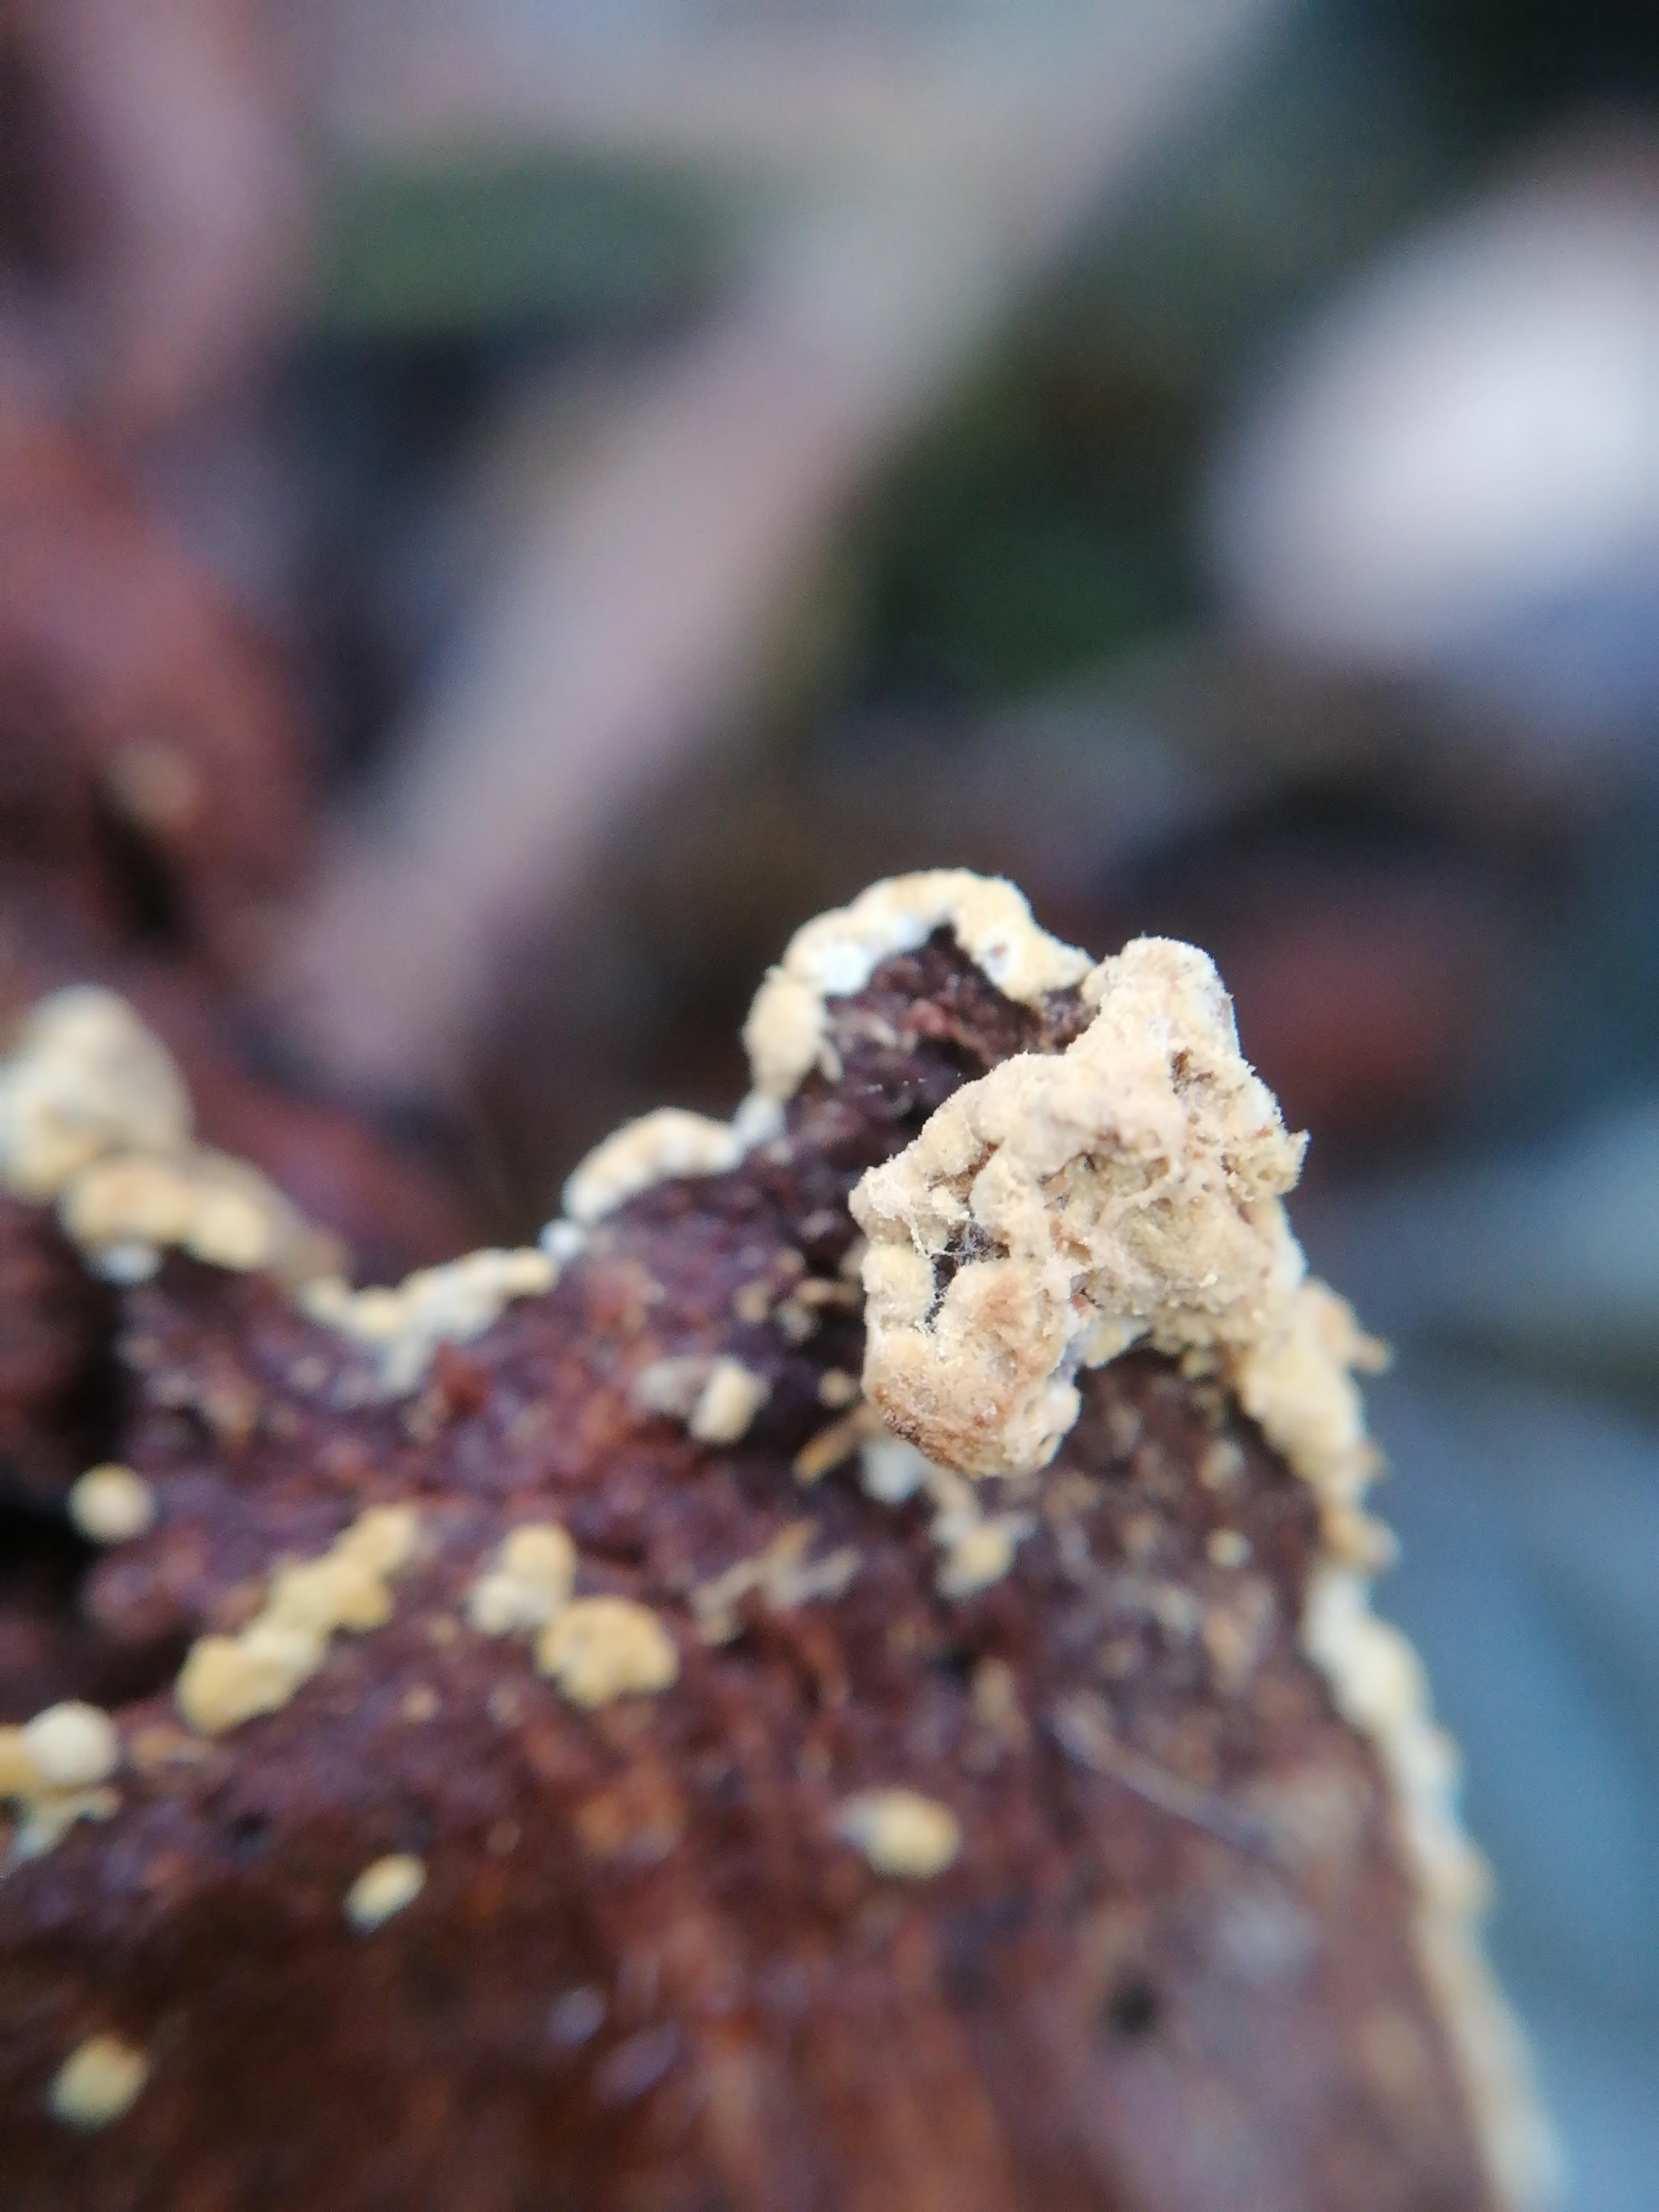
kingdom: Fungi
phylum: Basidiomycota
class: Agaricomycetes
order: Cantharellales
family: Botryobasidiaceae
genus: Botryobasidium
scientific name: Botryobasidium aureum
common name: gylden spindhinde
